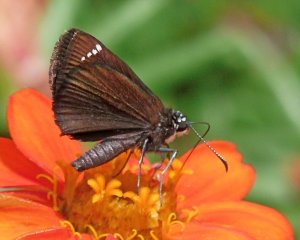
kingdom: Animalia
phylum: Arthropoda
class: Insecta
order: Lepidoptera
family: Hesperiidae
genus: Pholisora
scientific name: Pholisora catullus
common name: Common Sootywing
